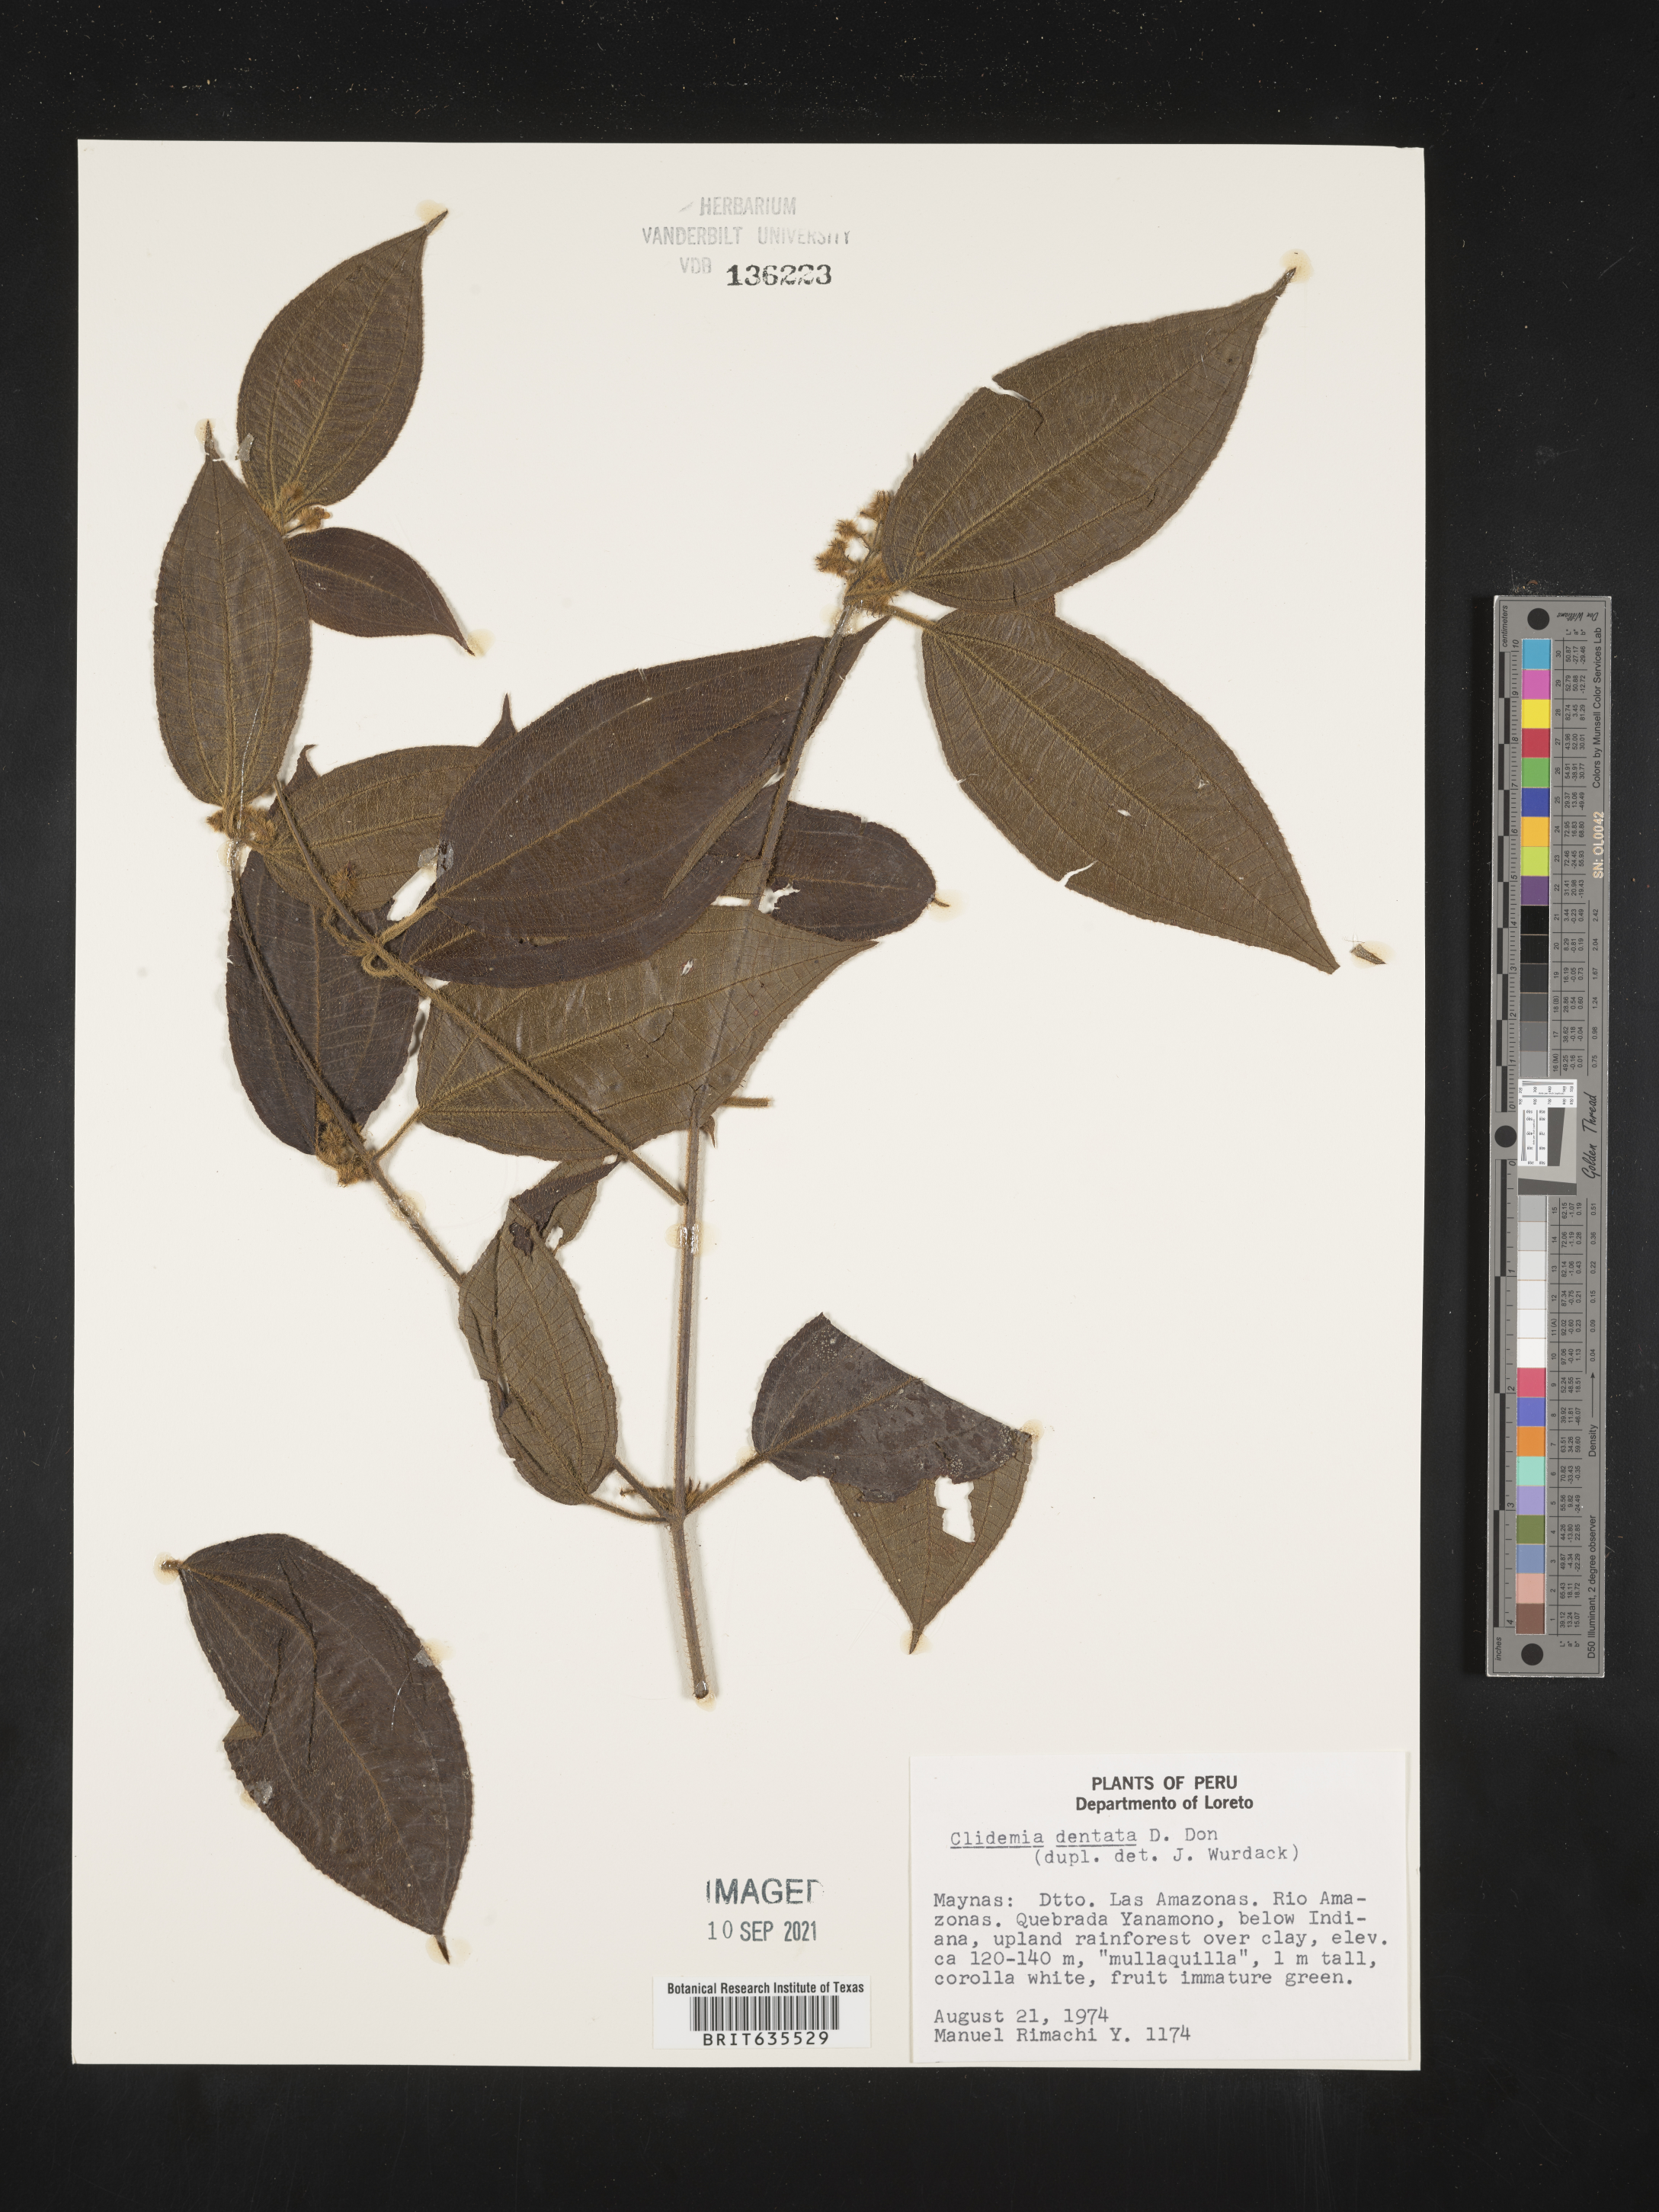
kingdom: Plantae
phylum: Tracheophyta
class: Magnoliopsida
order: Myrtales
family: Melastomataceae
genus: Miconia
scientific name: Miconia
